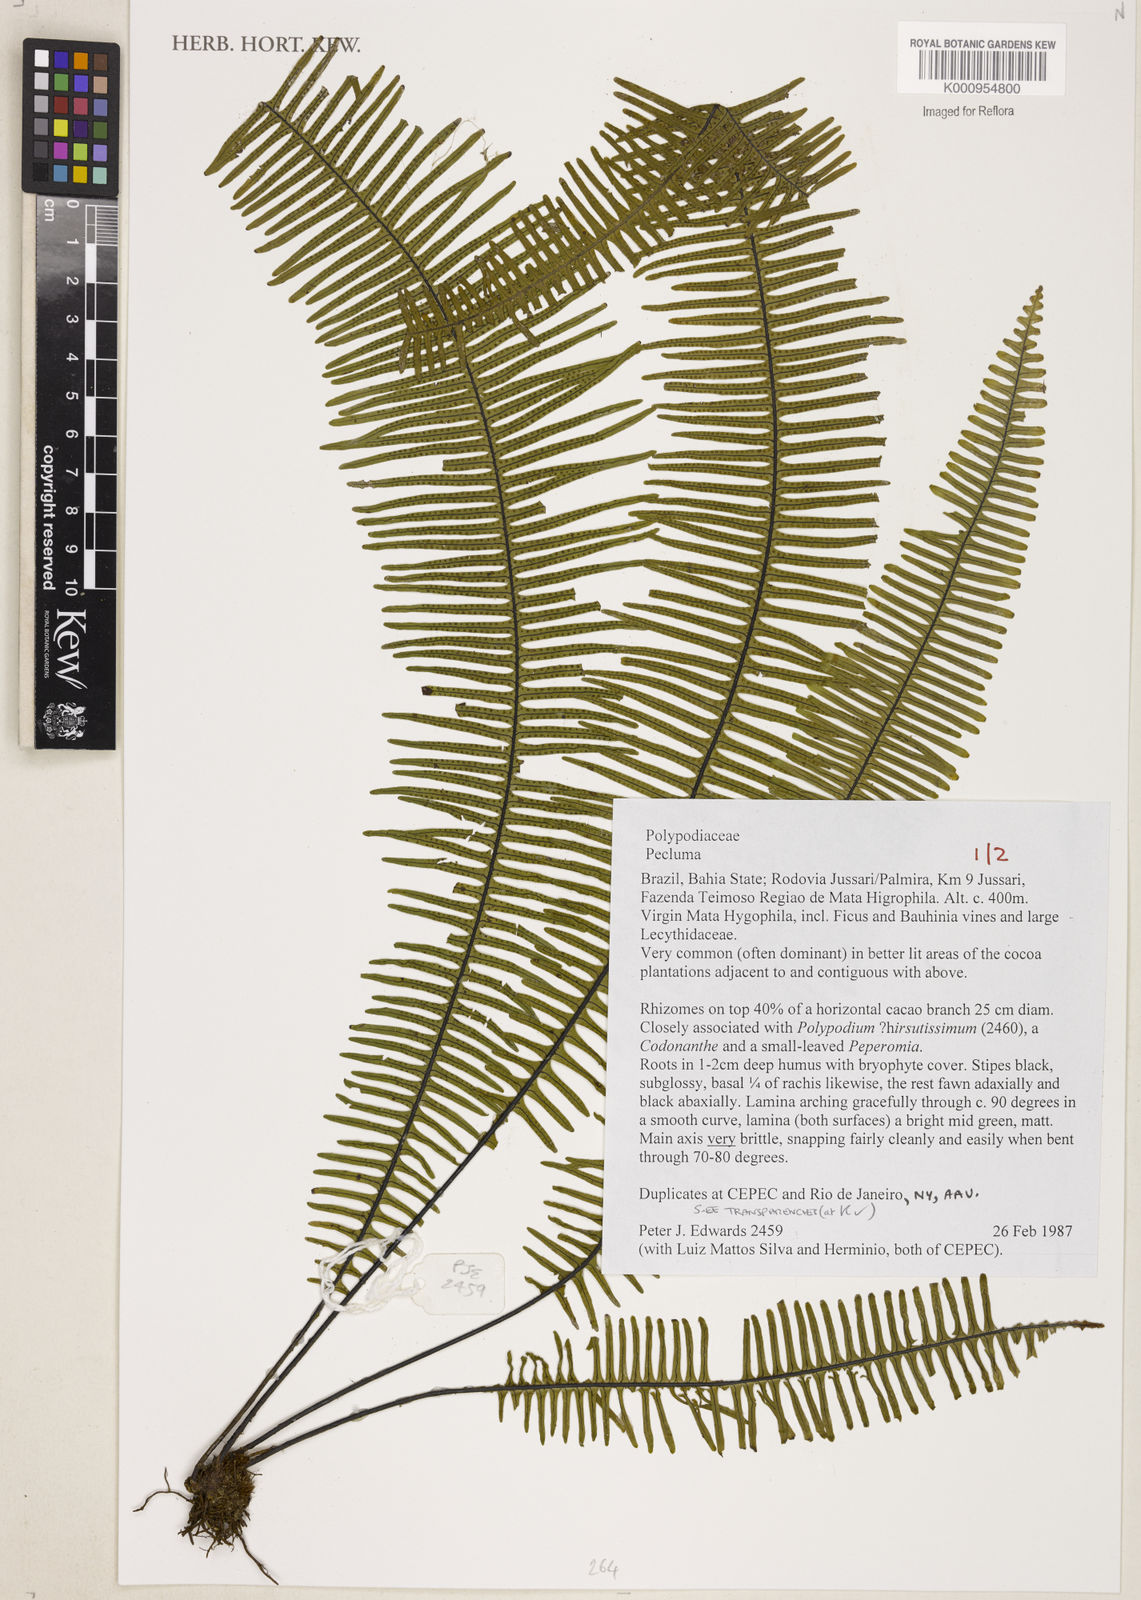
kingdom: Plantae
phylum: Tracheophyta
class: Polypodiopsida
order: Polypodiales
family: Polypodiaceae
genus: Pecluma
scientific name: Pecluma
